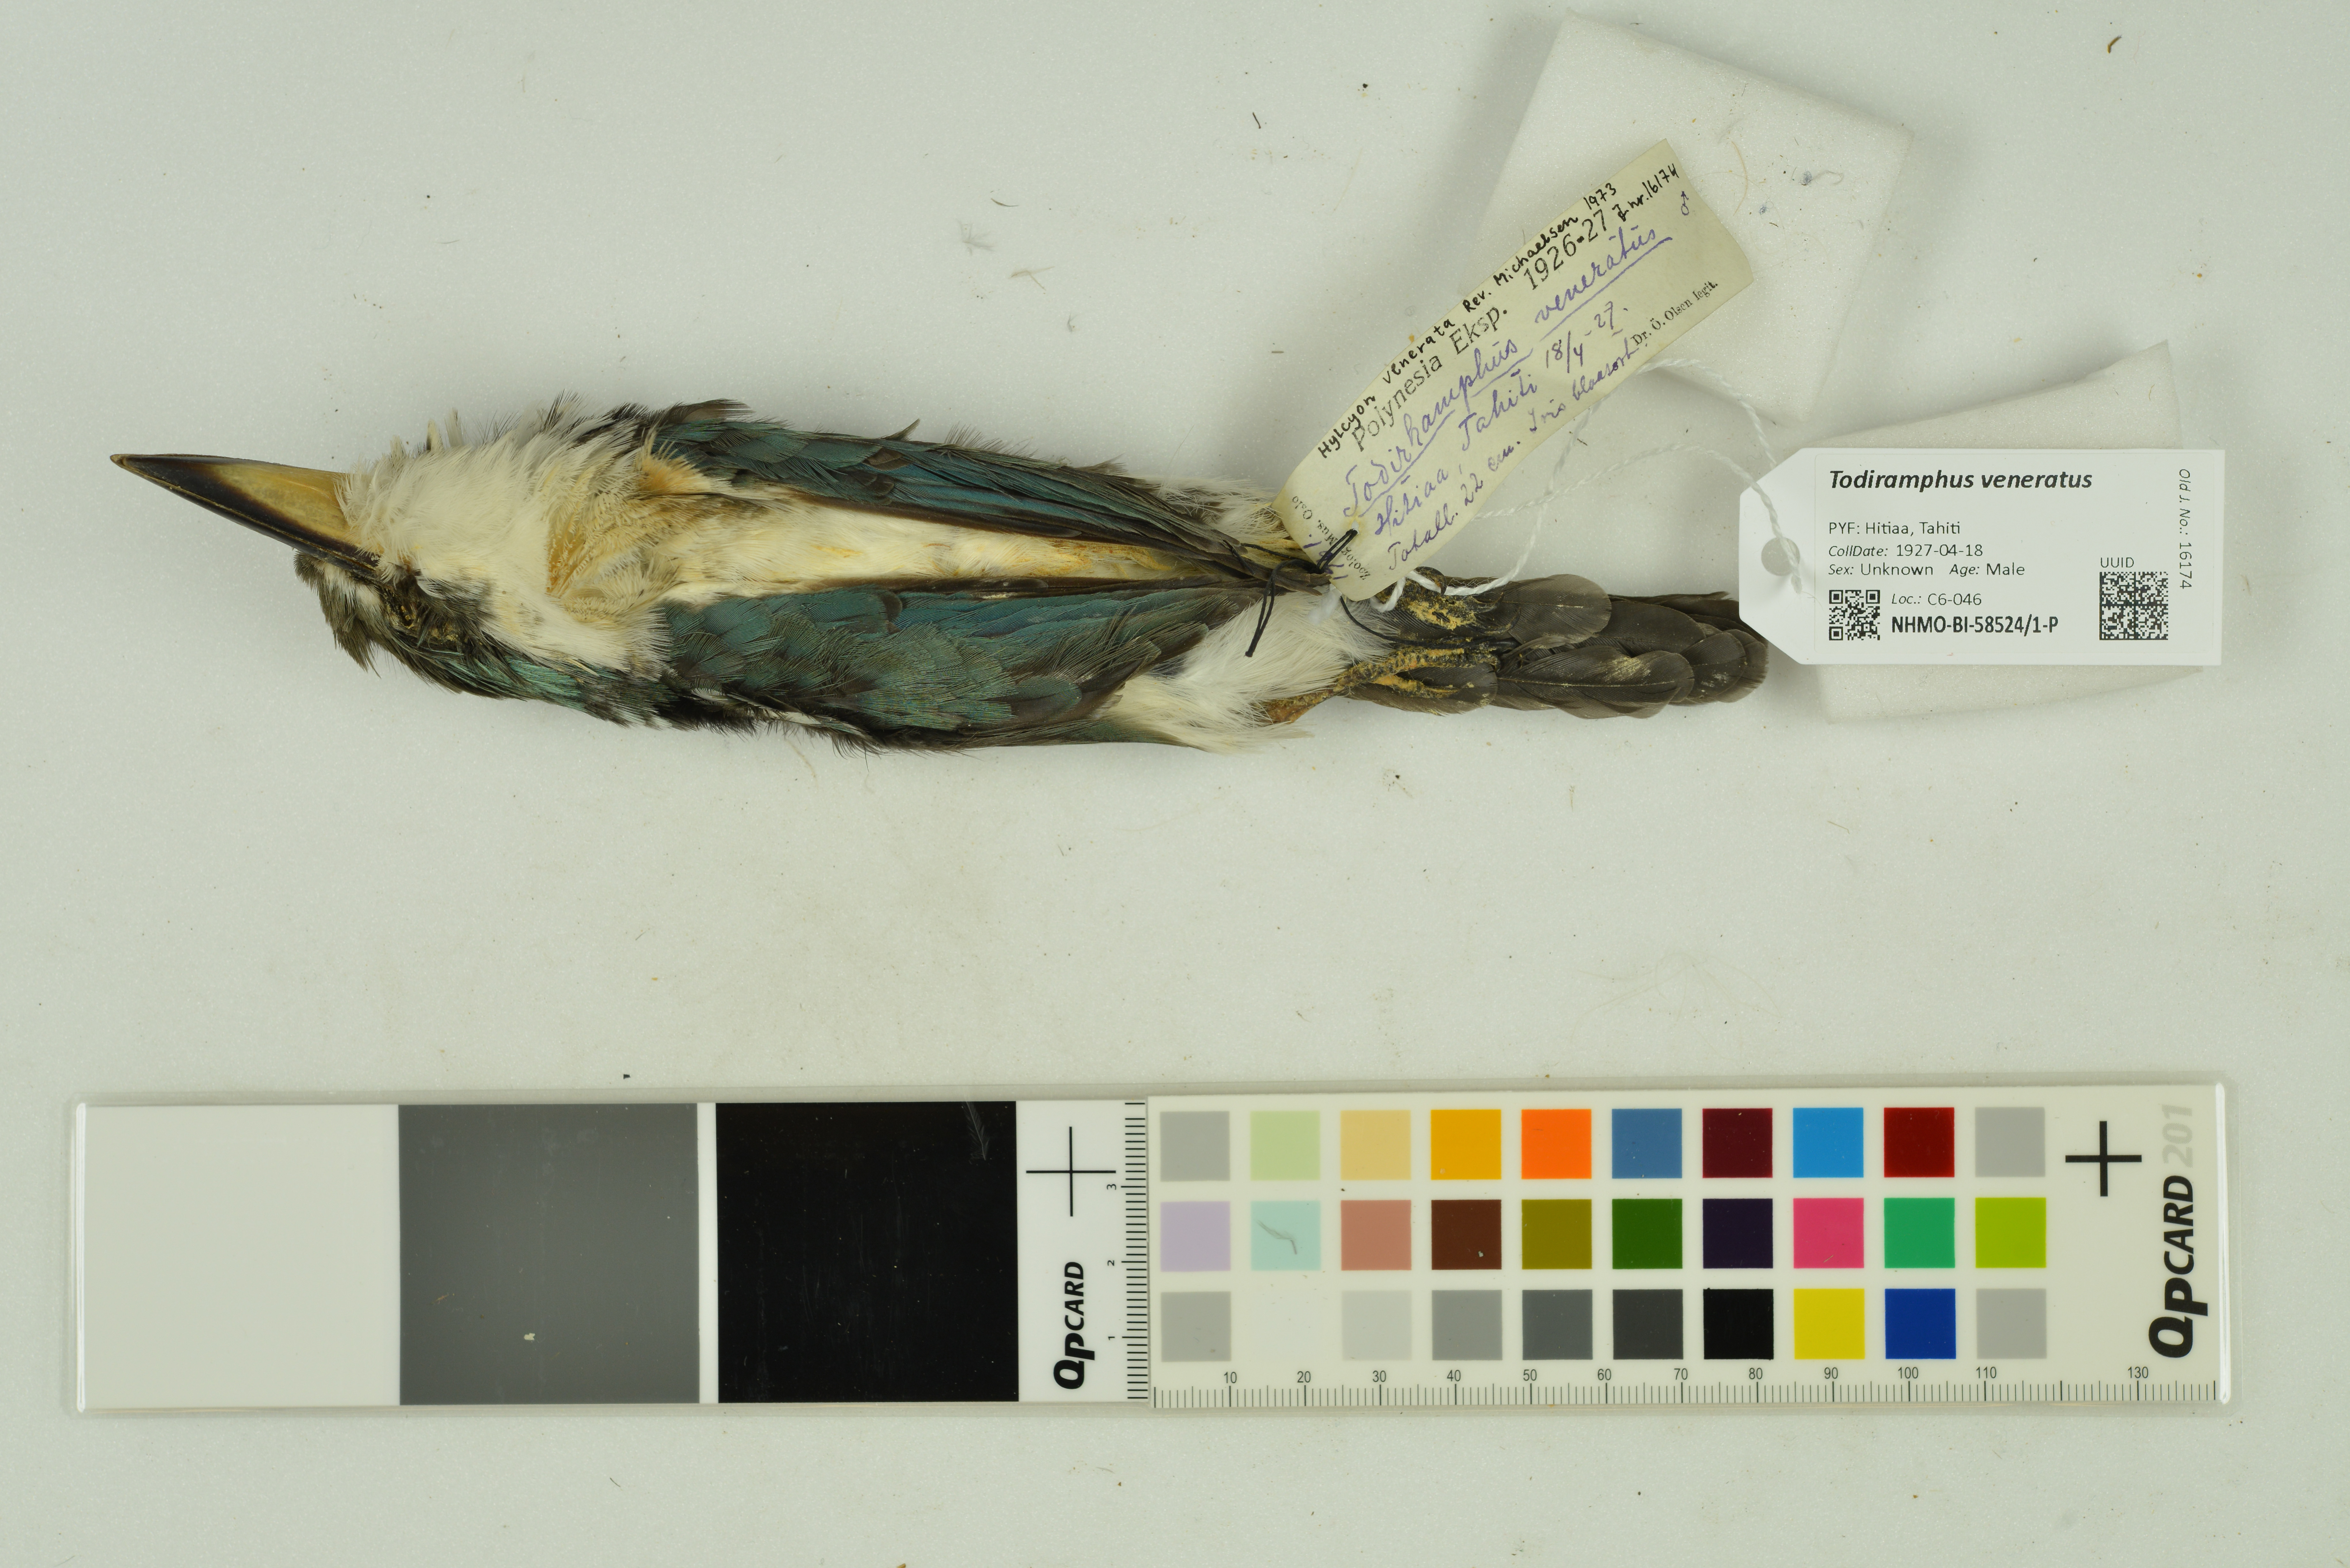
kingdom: Animalia
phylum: Chordata
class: Aves
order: Coraciiformes
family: Alcedinidae
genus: Todiramphus
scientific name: Todiramphus veneratus
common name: Society kingfisher
